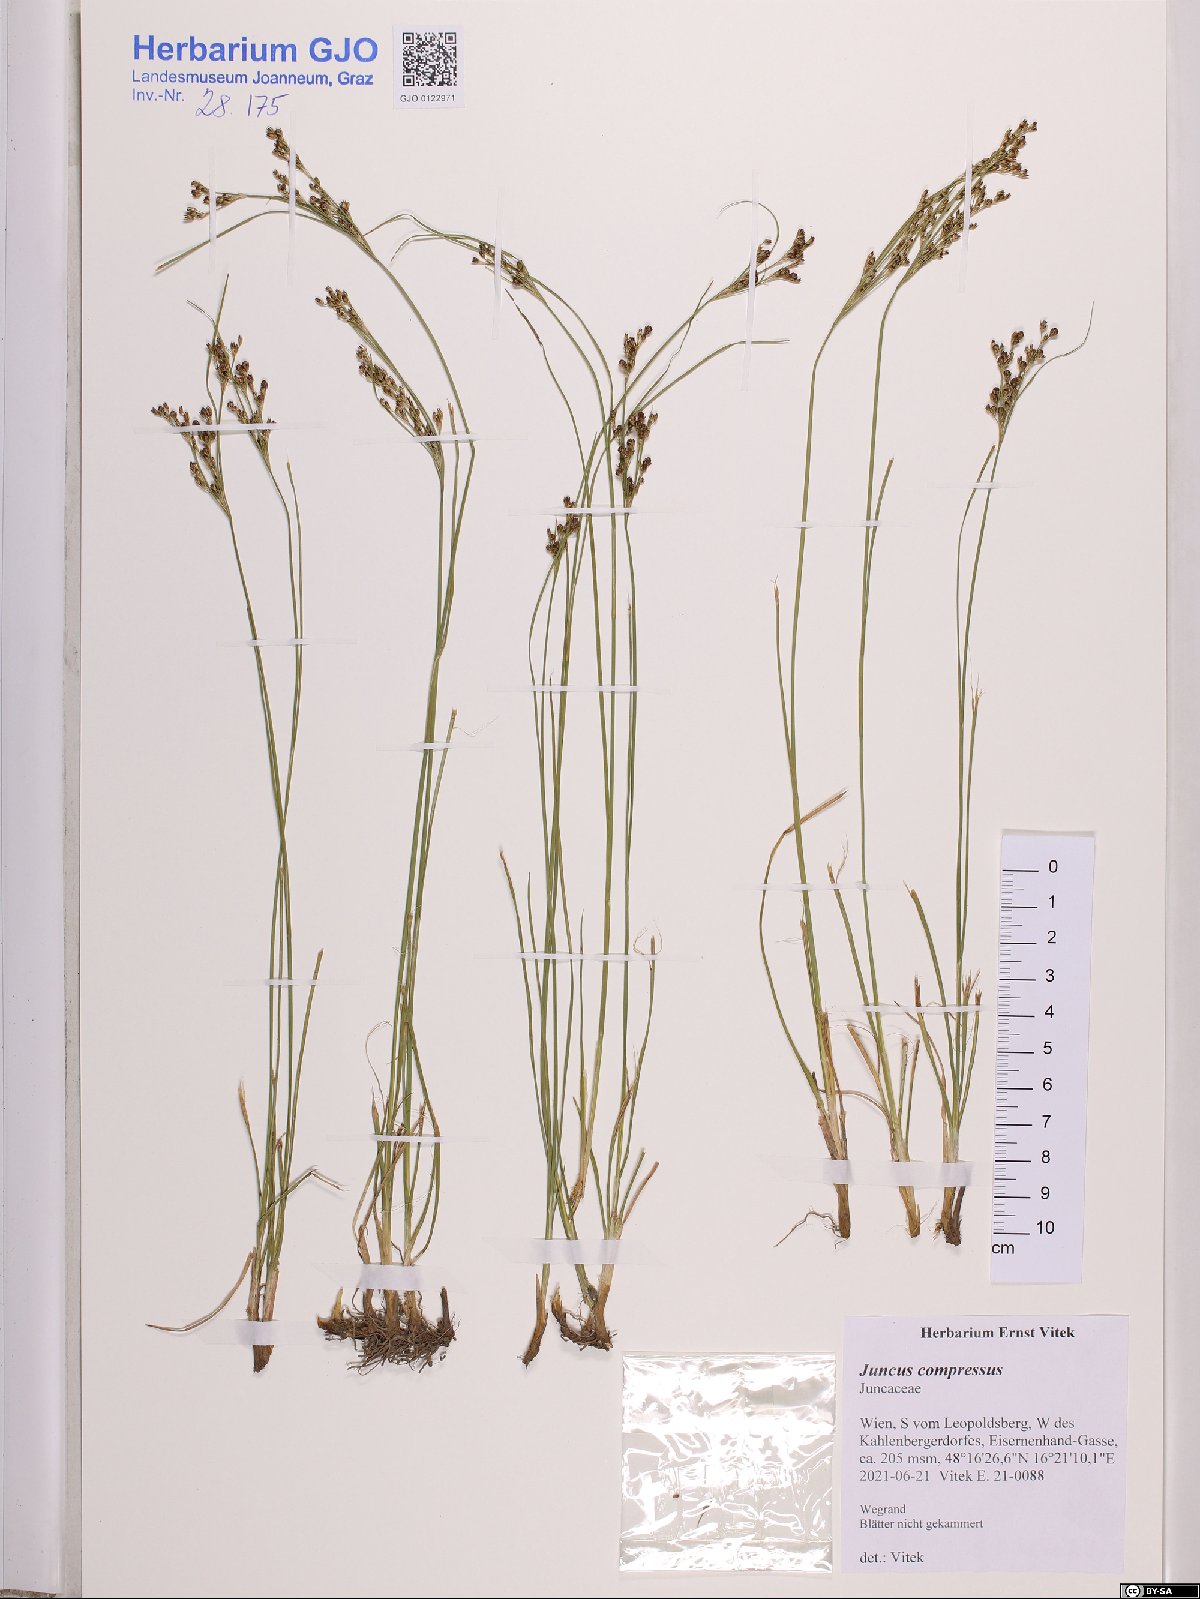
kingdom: Plantae
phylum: Tracheophyta
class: Liliopsida
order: Poales
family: Juncaceae
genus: Juncus
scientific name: Juncus compressus
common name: Round-fruited rush
